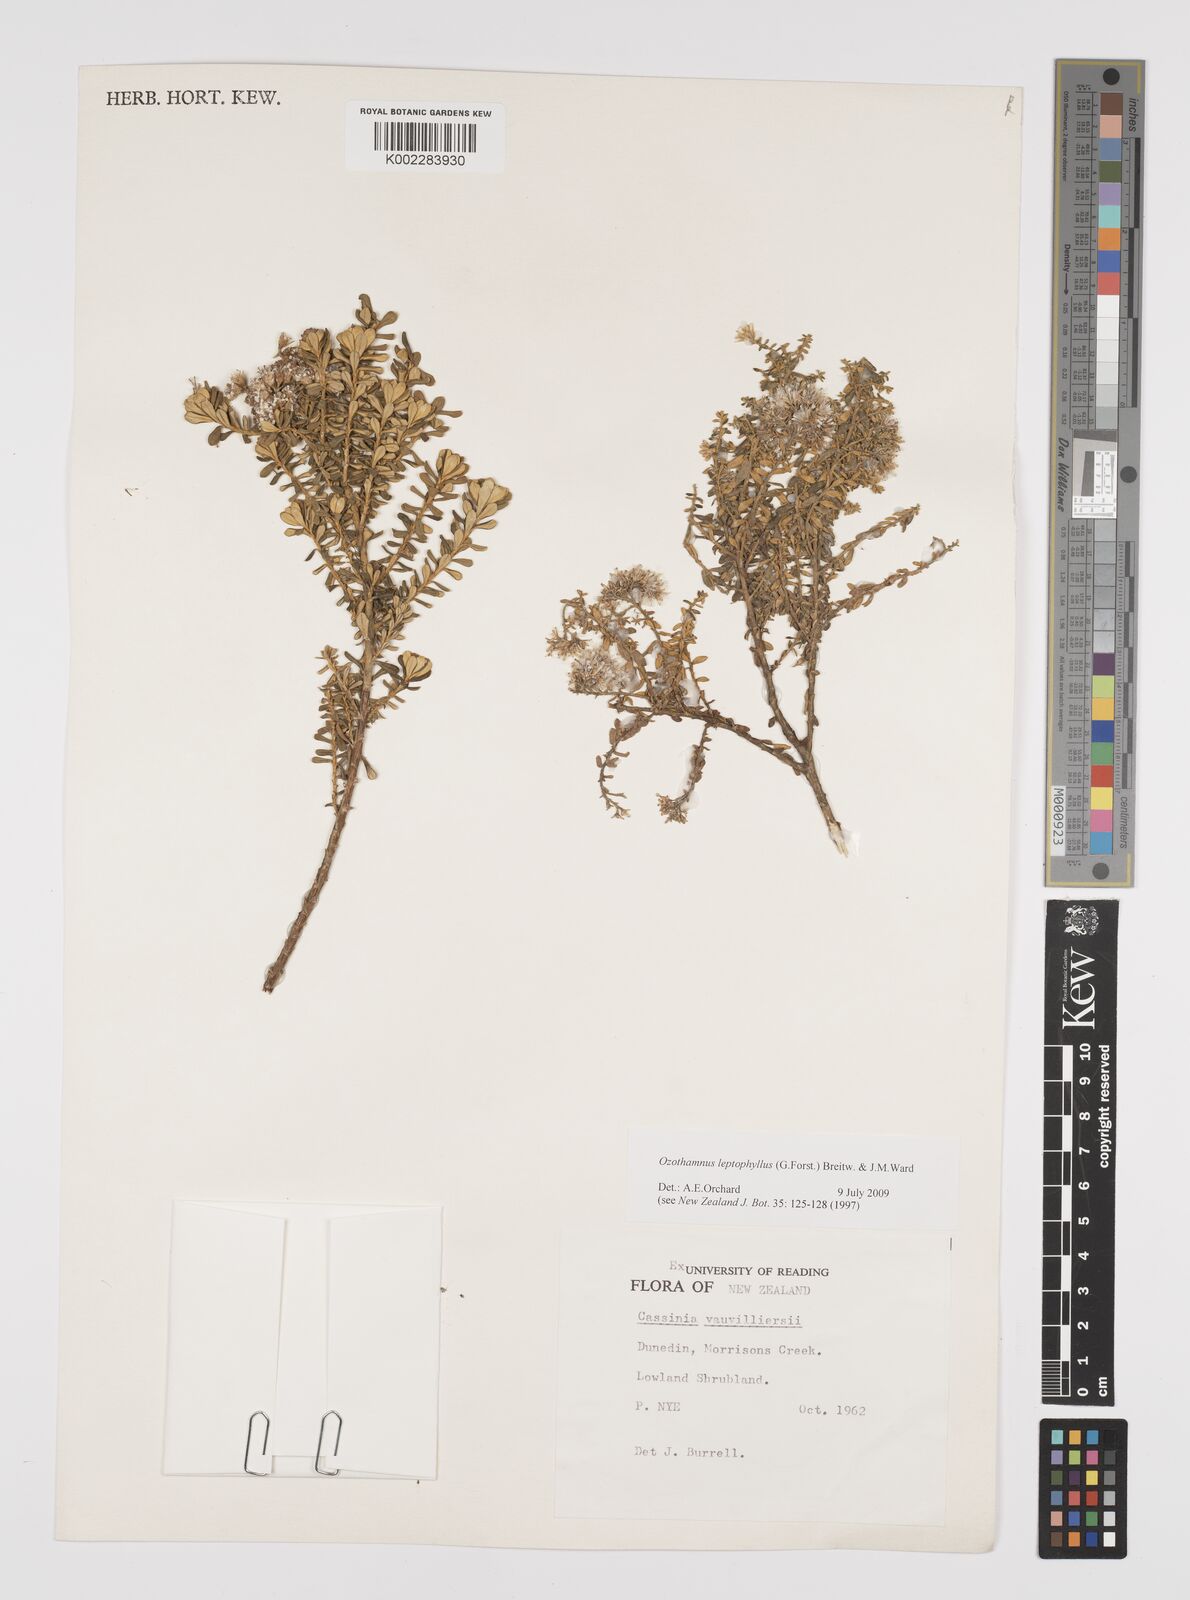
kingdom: Plantae
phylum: Tracheophyta
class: Magnoliopsida
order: Asterales
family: Asteraceae
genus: Ozothamnus
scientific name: Ozothamnus leptophyllus
